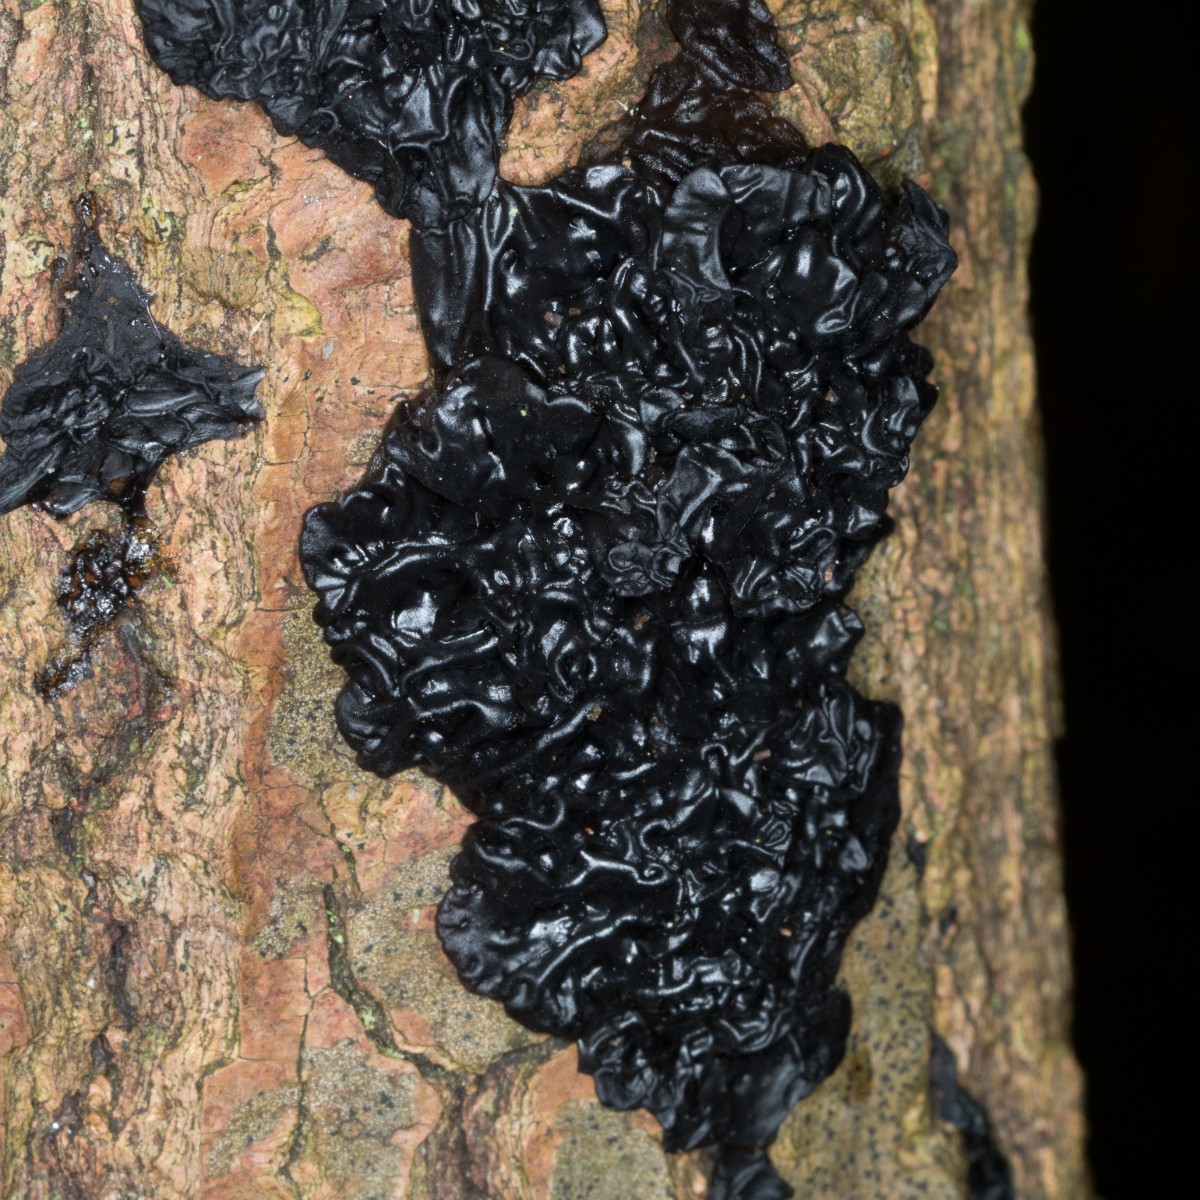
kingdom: Fungi
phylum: Basidiomycota
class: Agaricomycetes
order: Auriculariales
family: Auriculariaceae
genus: Exidia
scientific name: Exidia nigricans
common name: almindelig bævretop
